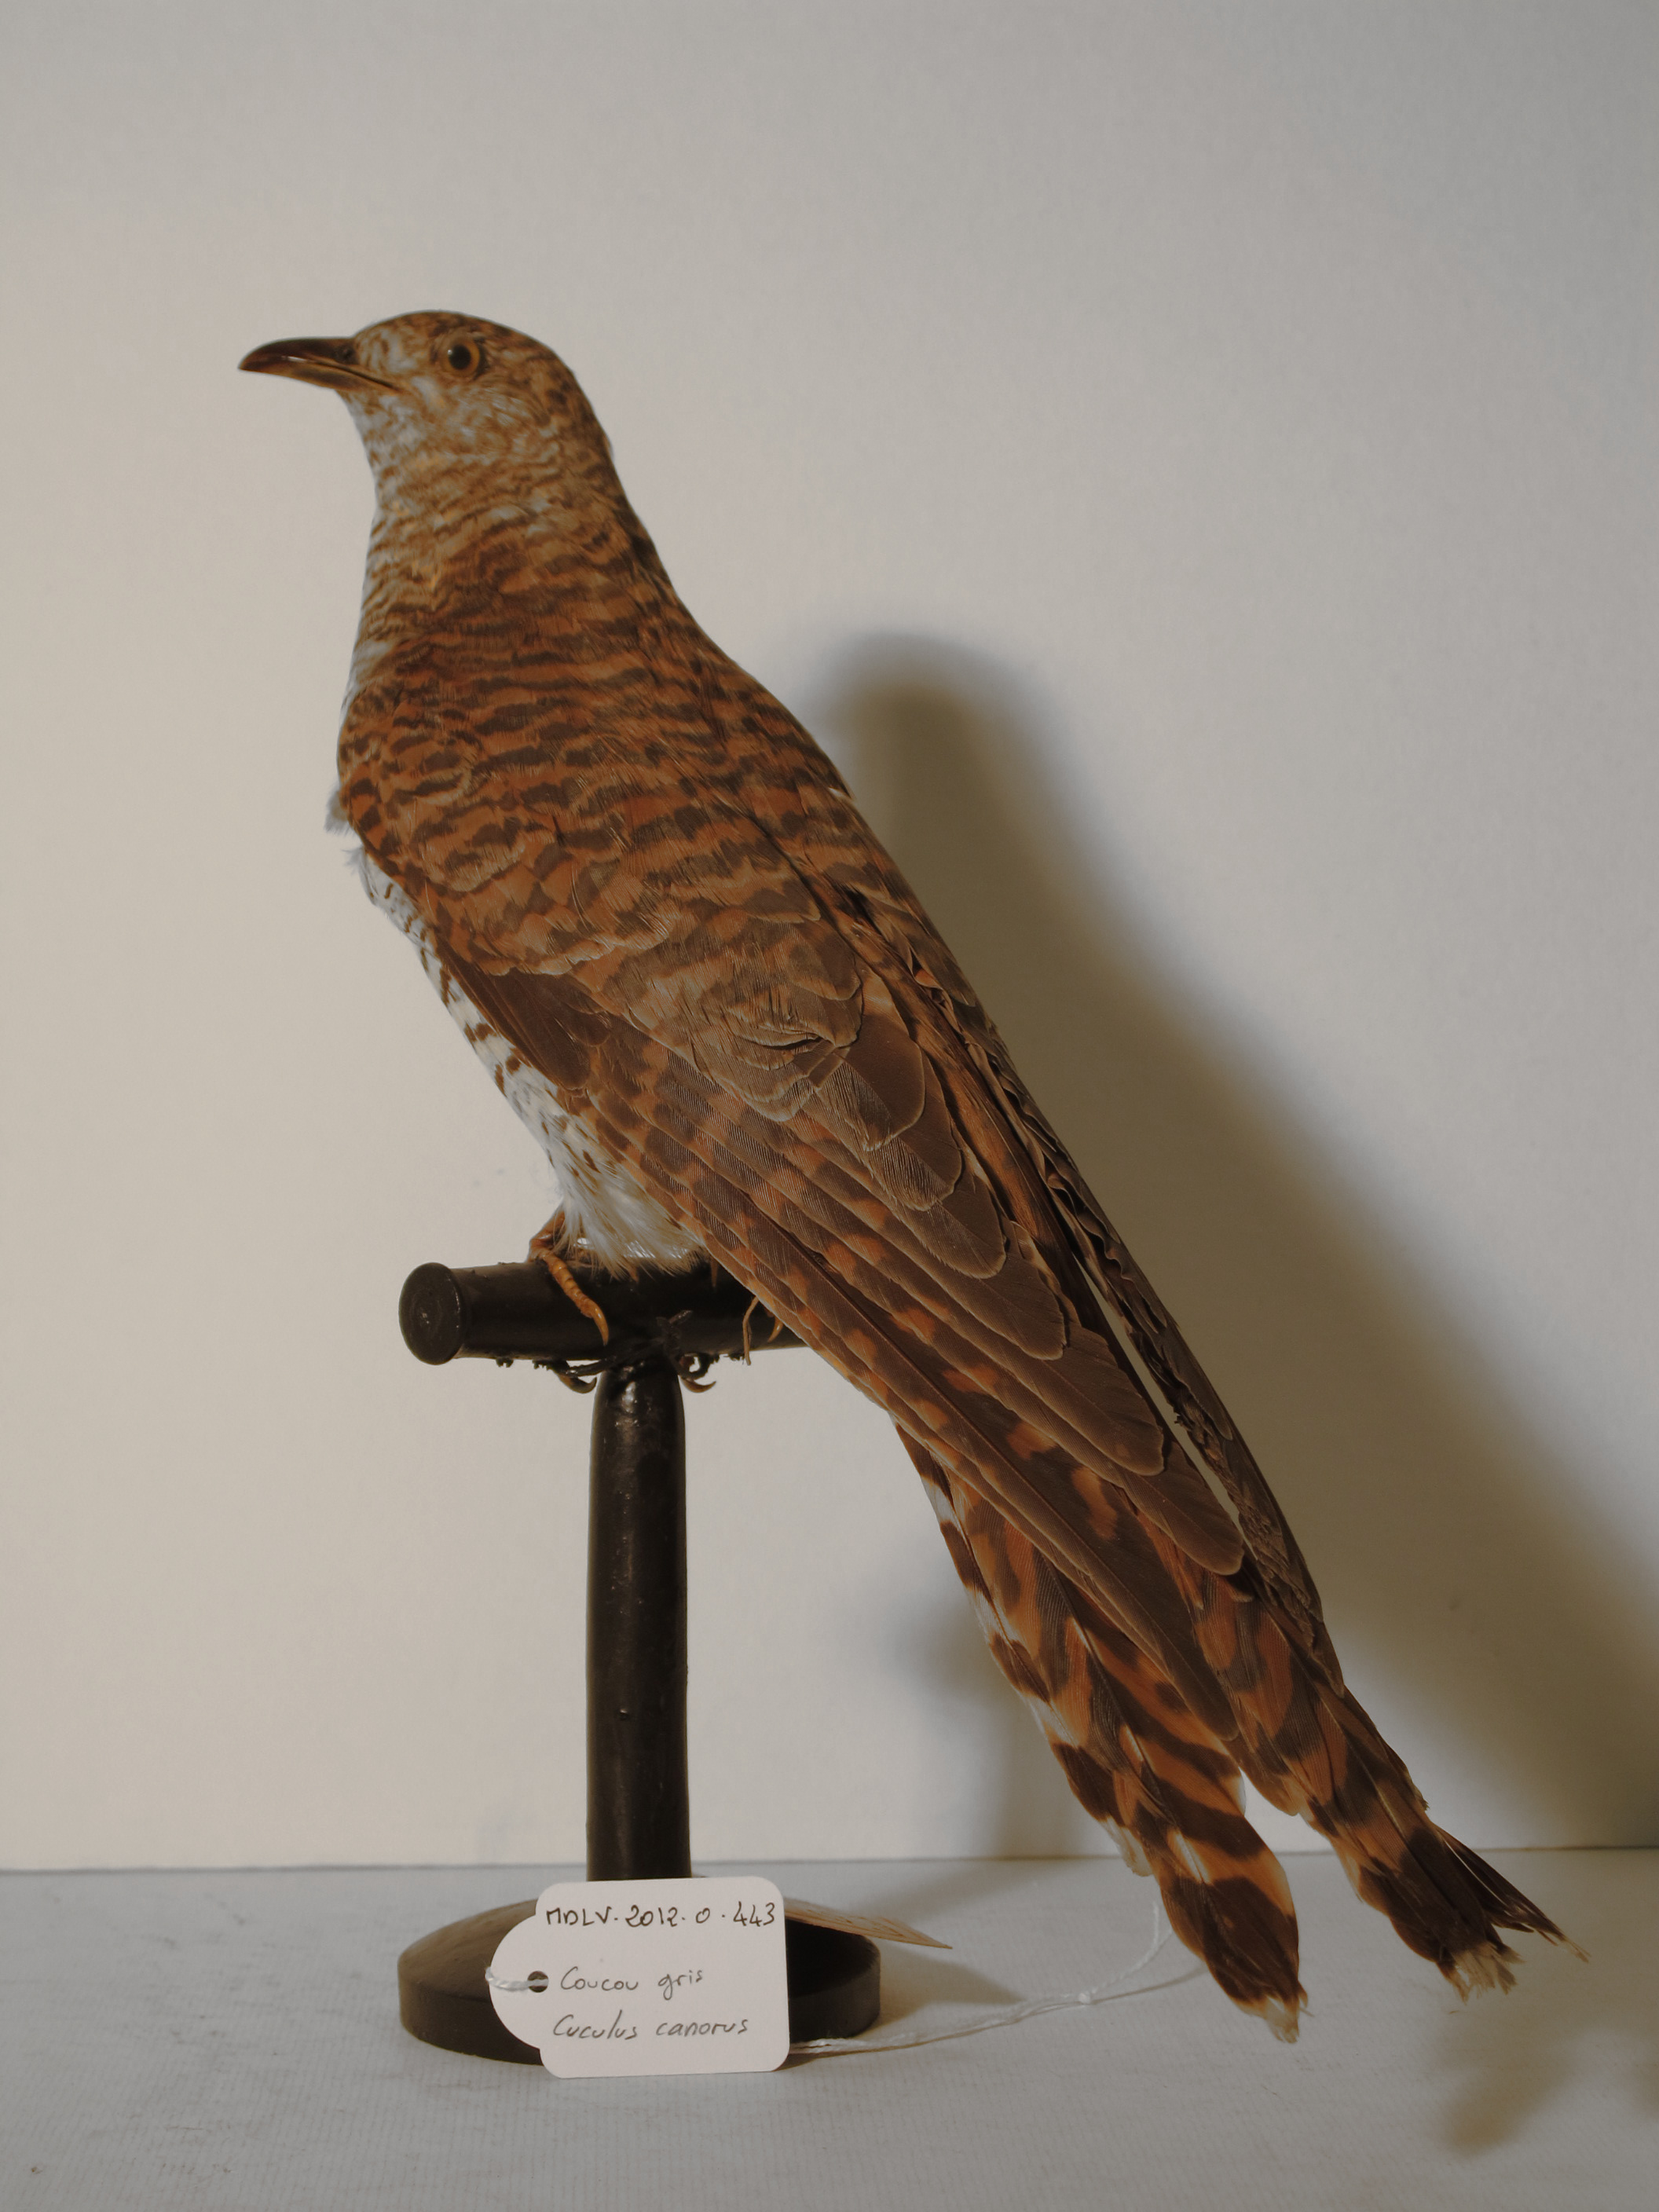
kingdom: Animalia
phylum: Chordata
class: Aves
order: Cuculiformes
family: Cuculidae
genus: Cuculus
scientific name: Cuculus canorus
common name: Common Cuckoo
